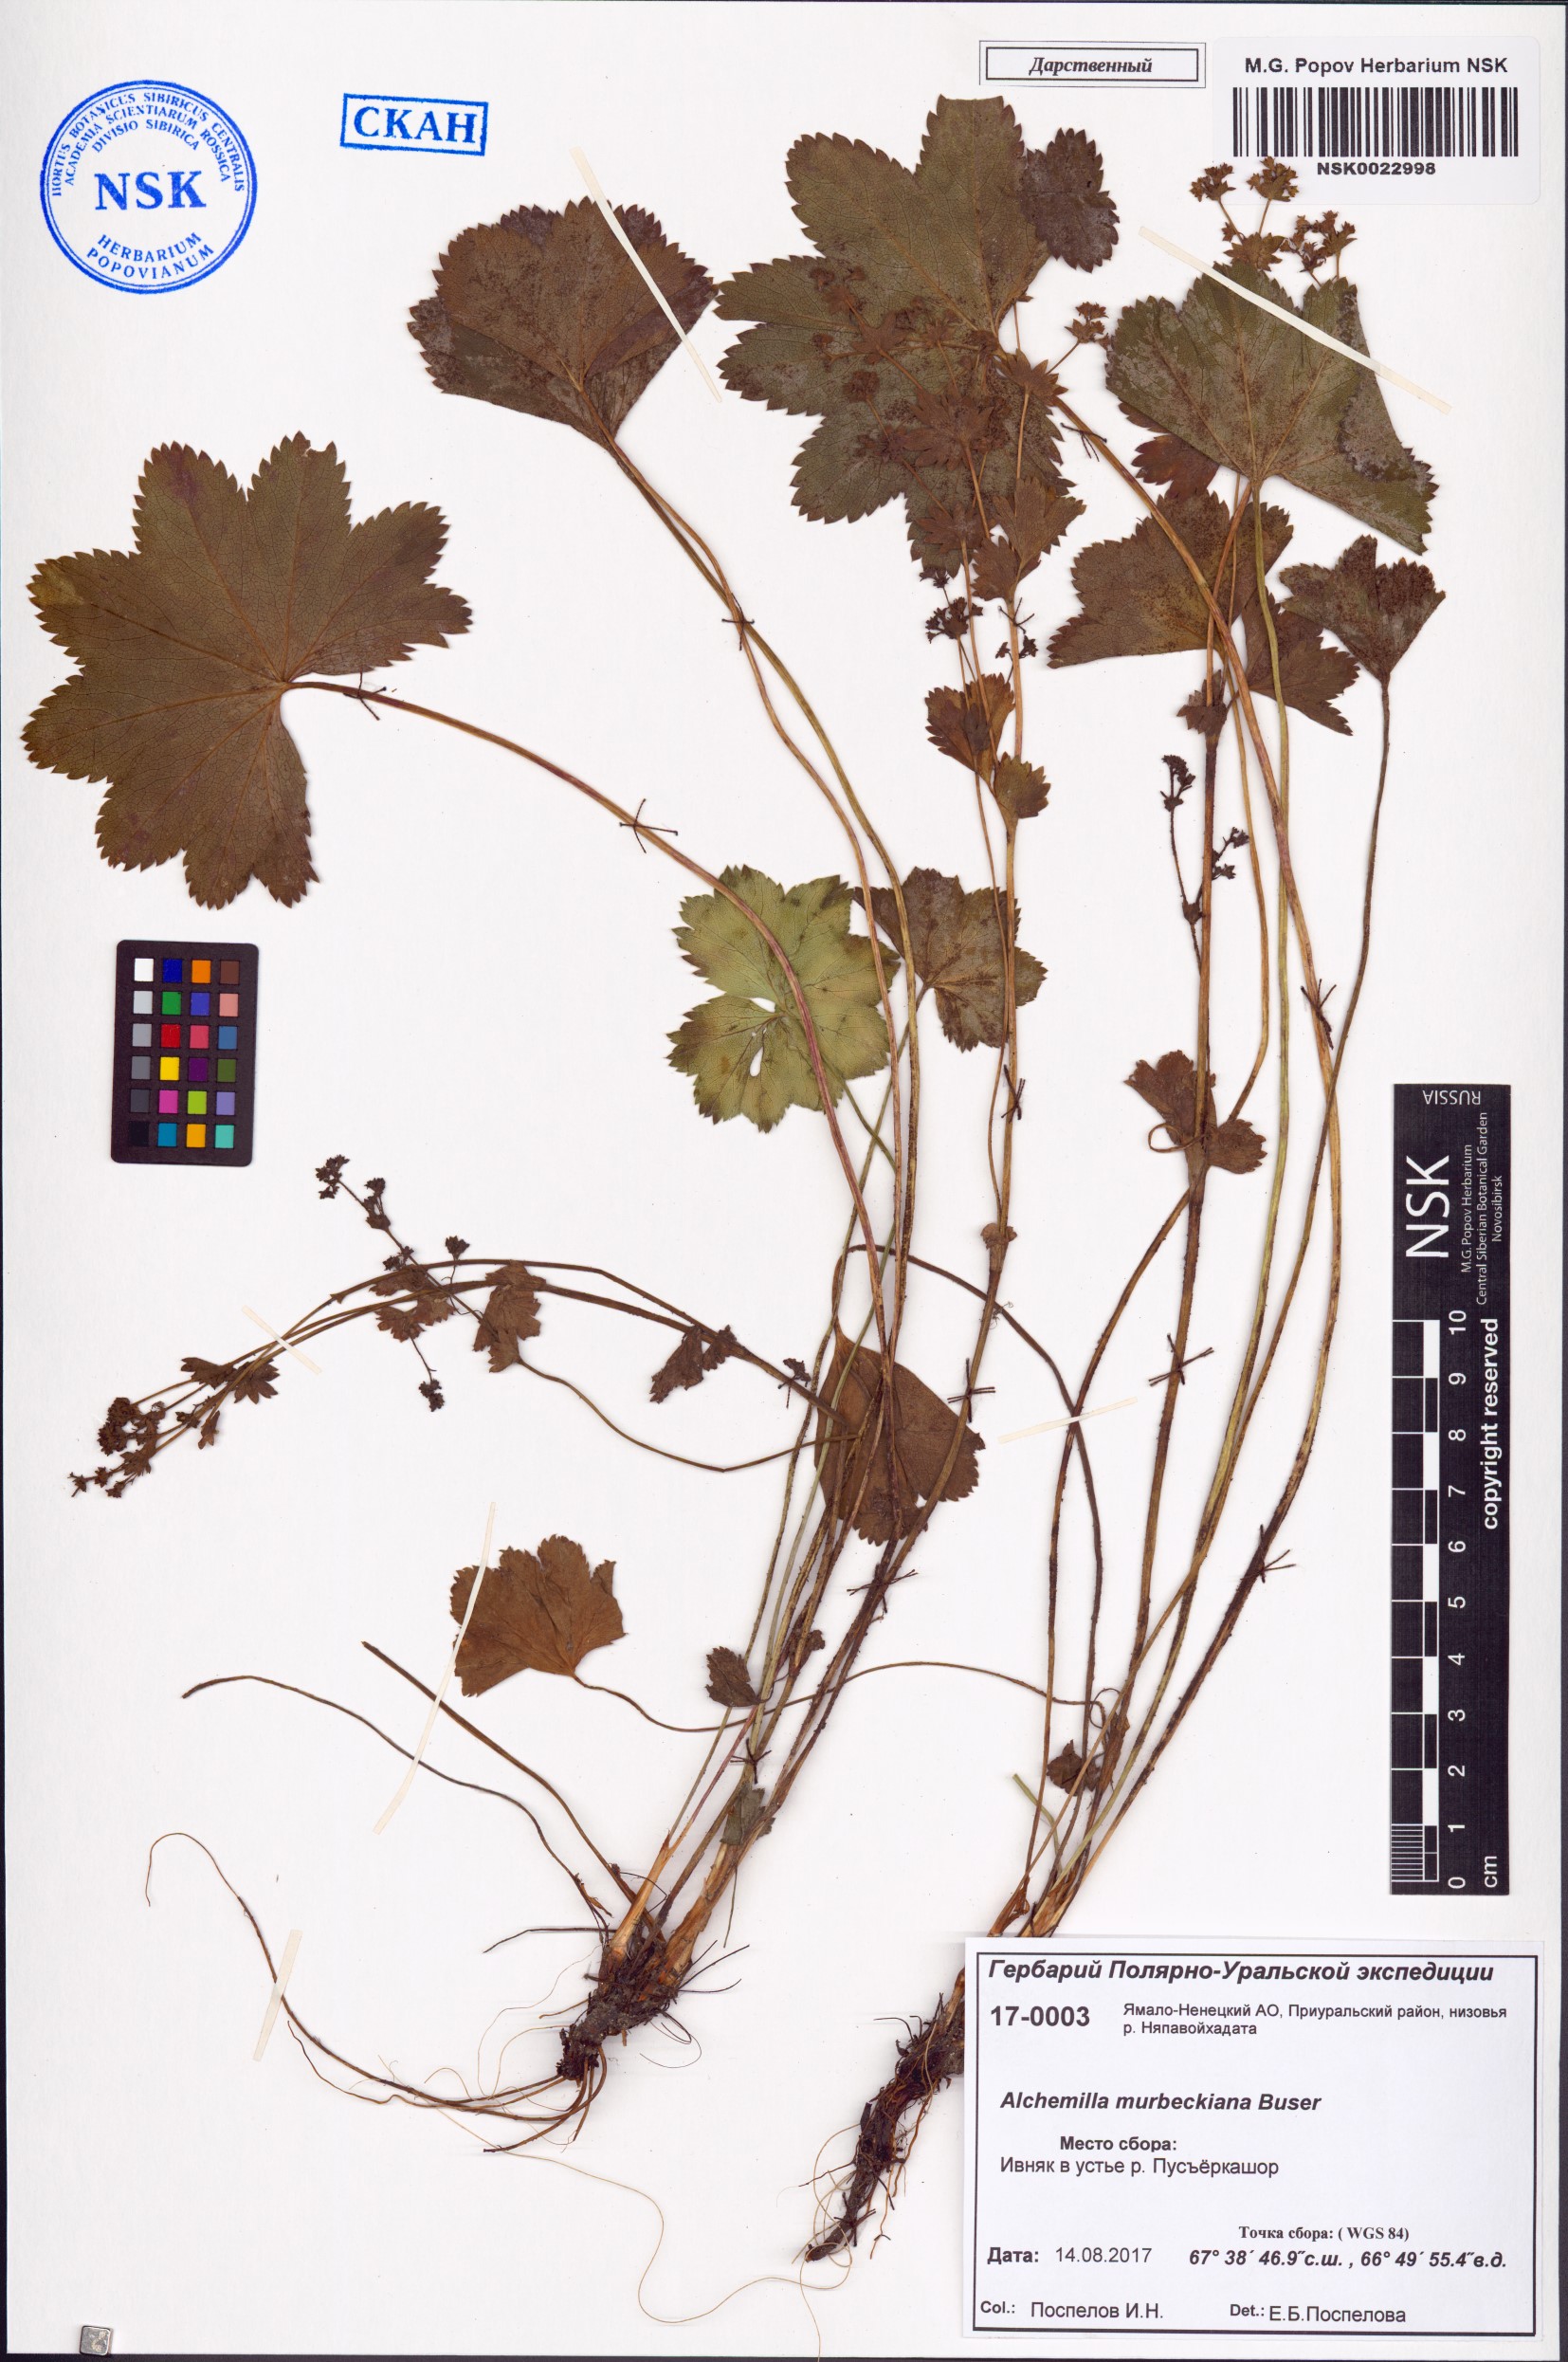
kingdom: Plantae
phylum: Tracheophyta
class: Magnoliopsida
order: Rosales
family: Rosaceae
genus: Alchemilla
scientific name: Alchemilla murbeckiana
